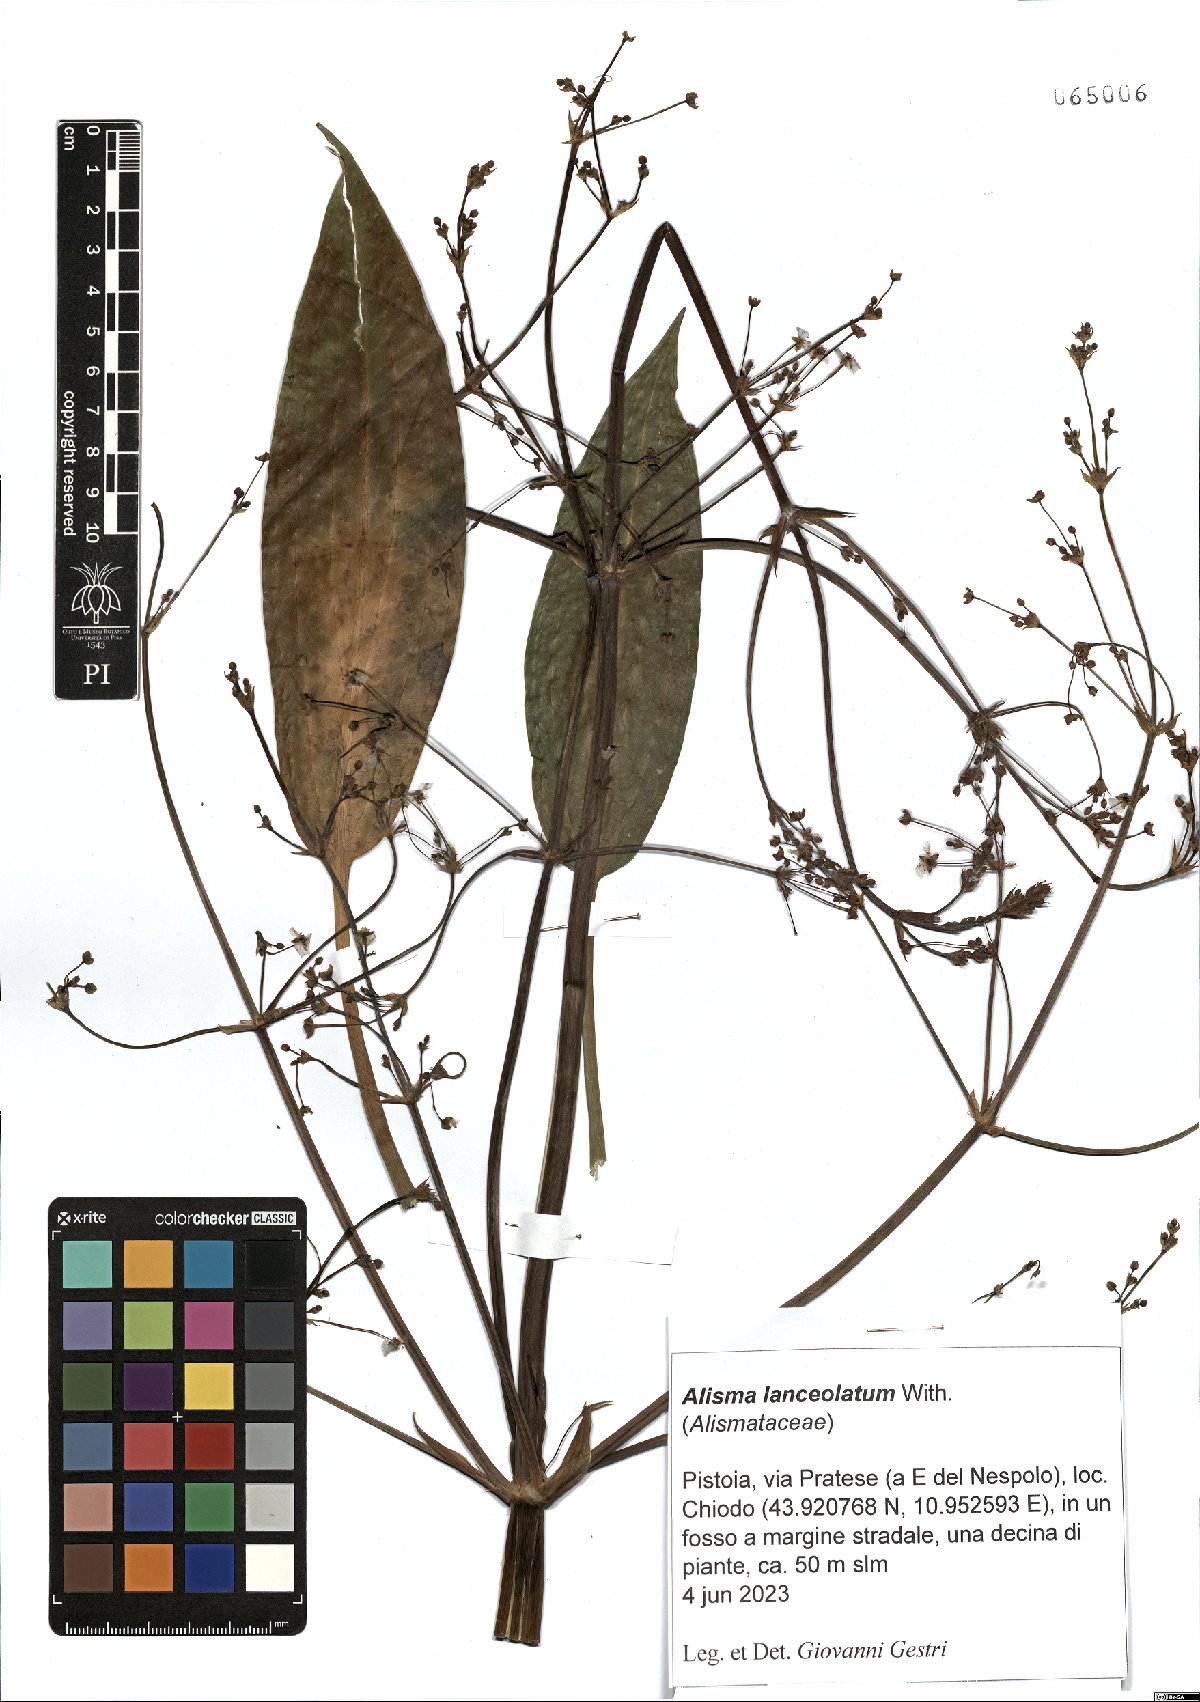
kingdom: Plantae
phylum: Tracheophyta
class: Liliopsida
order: Alismatales
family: Alismataceae
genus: Alisma
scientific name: Alisma lanceolatum
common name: Narrow-leaved water-plantain
